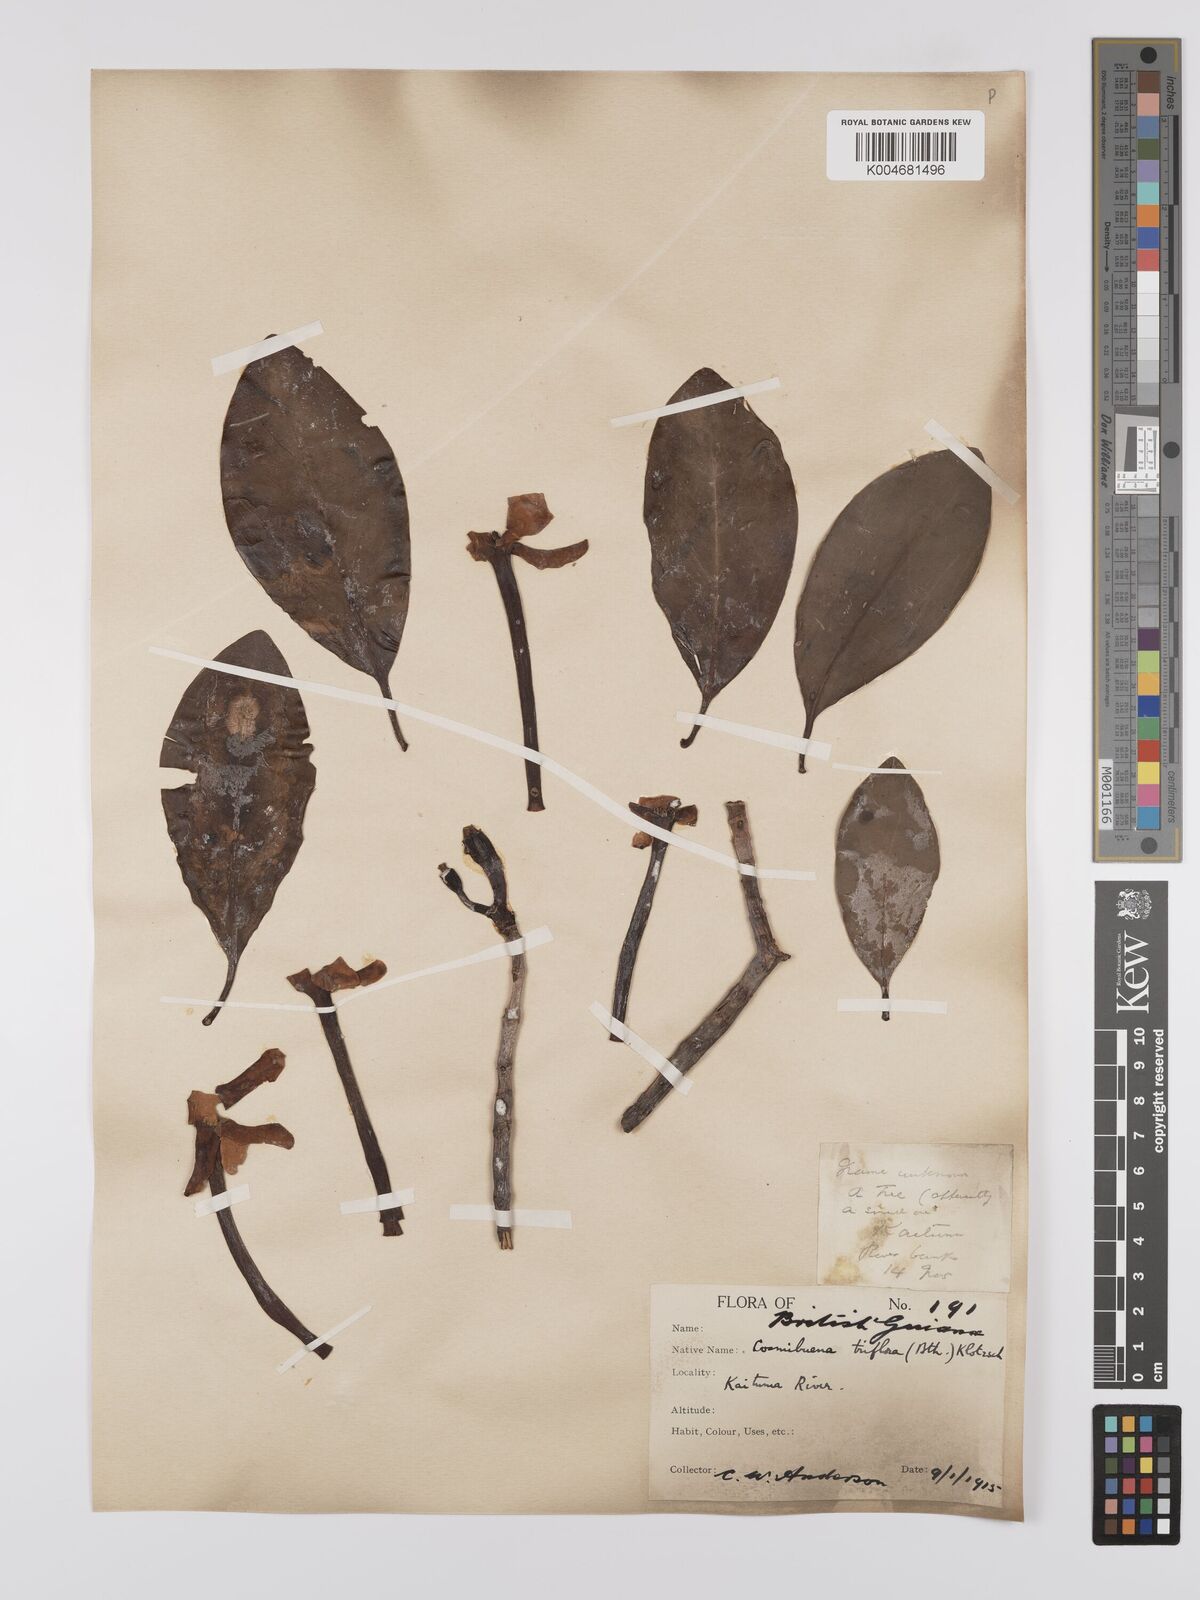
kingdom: Plantae
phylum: Tracheophyta
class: Magnoliopsida
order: Gentianales
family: Rubiaceae
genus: Cosmibuena
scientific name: Cosmibuena grandiflora
